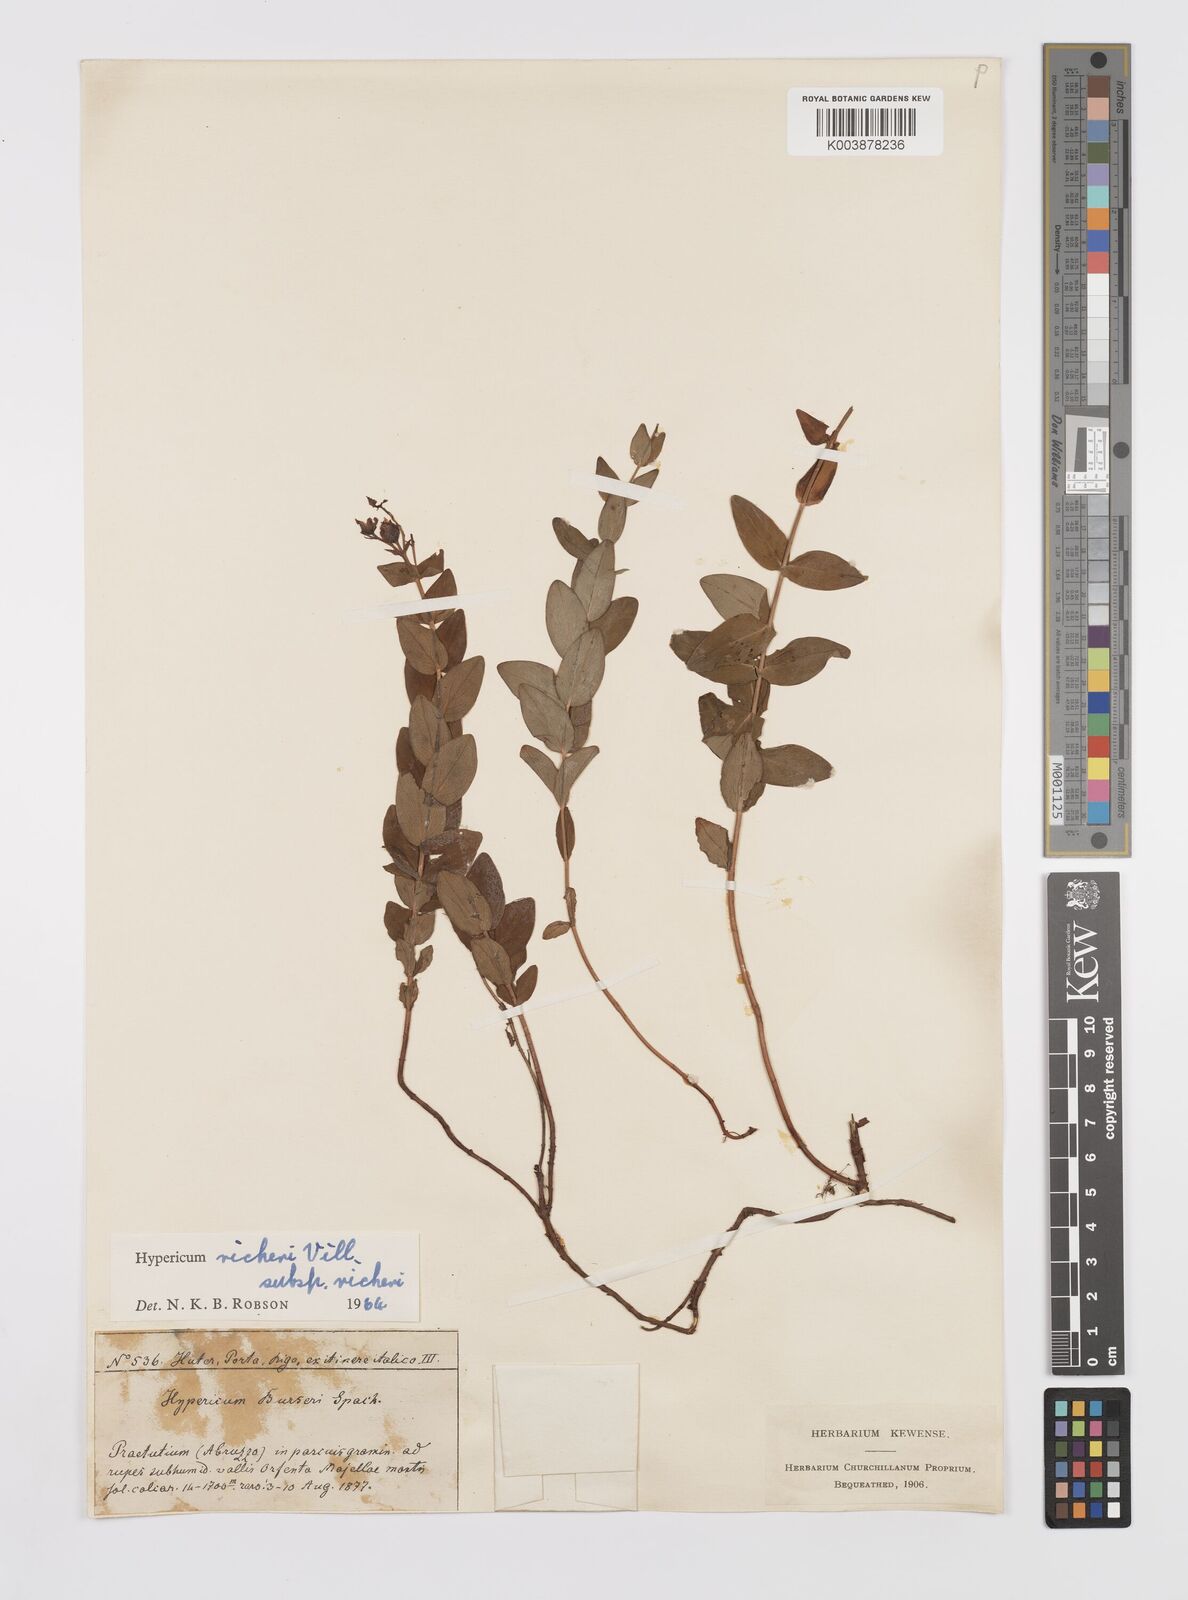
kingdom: Plantae
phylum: Tracheophyta
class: Magnoliopsida
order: Malpighiales
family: Hypericaceae
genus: Hypericum
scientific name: Hypericum richeri
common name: Alpine st john's-wort
